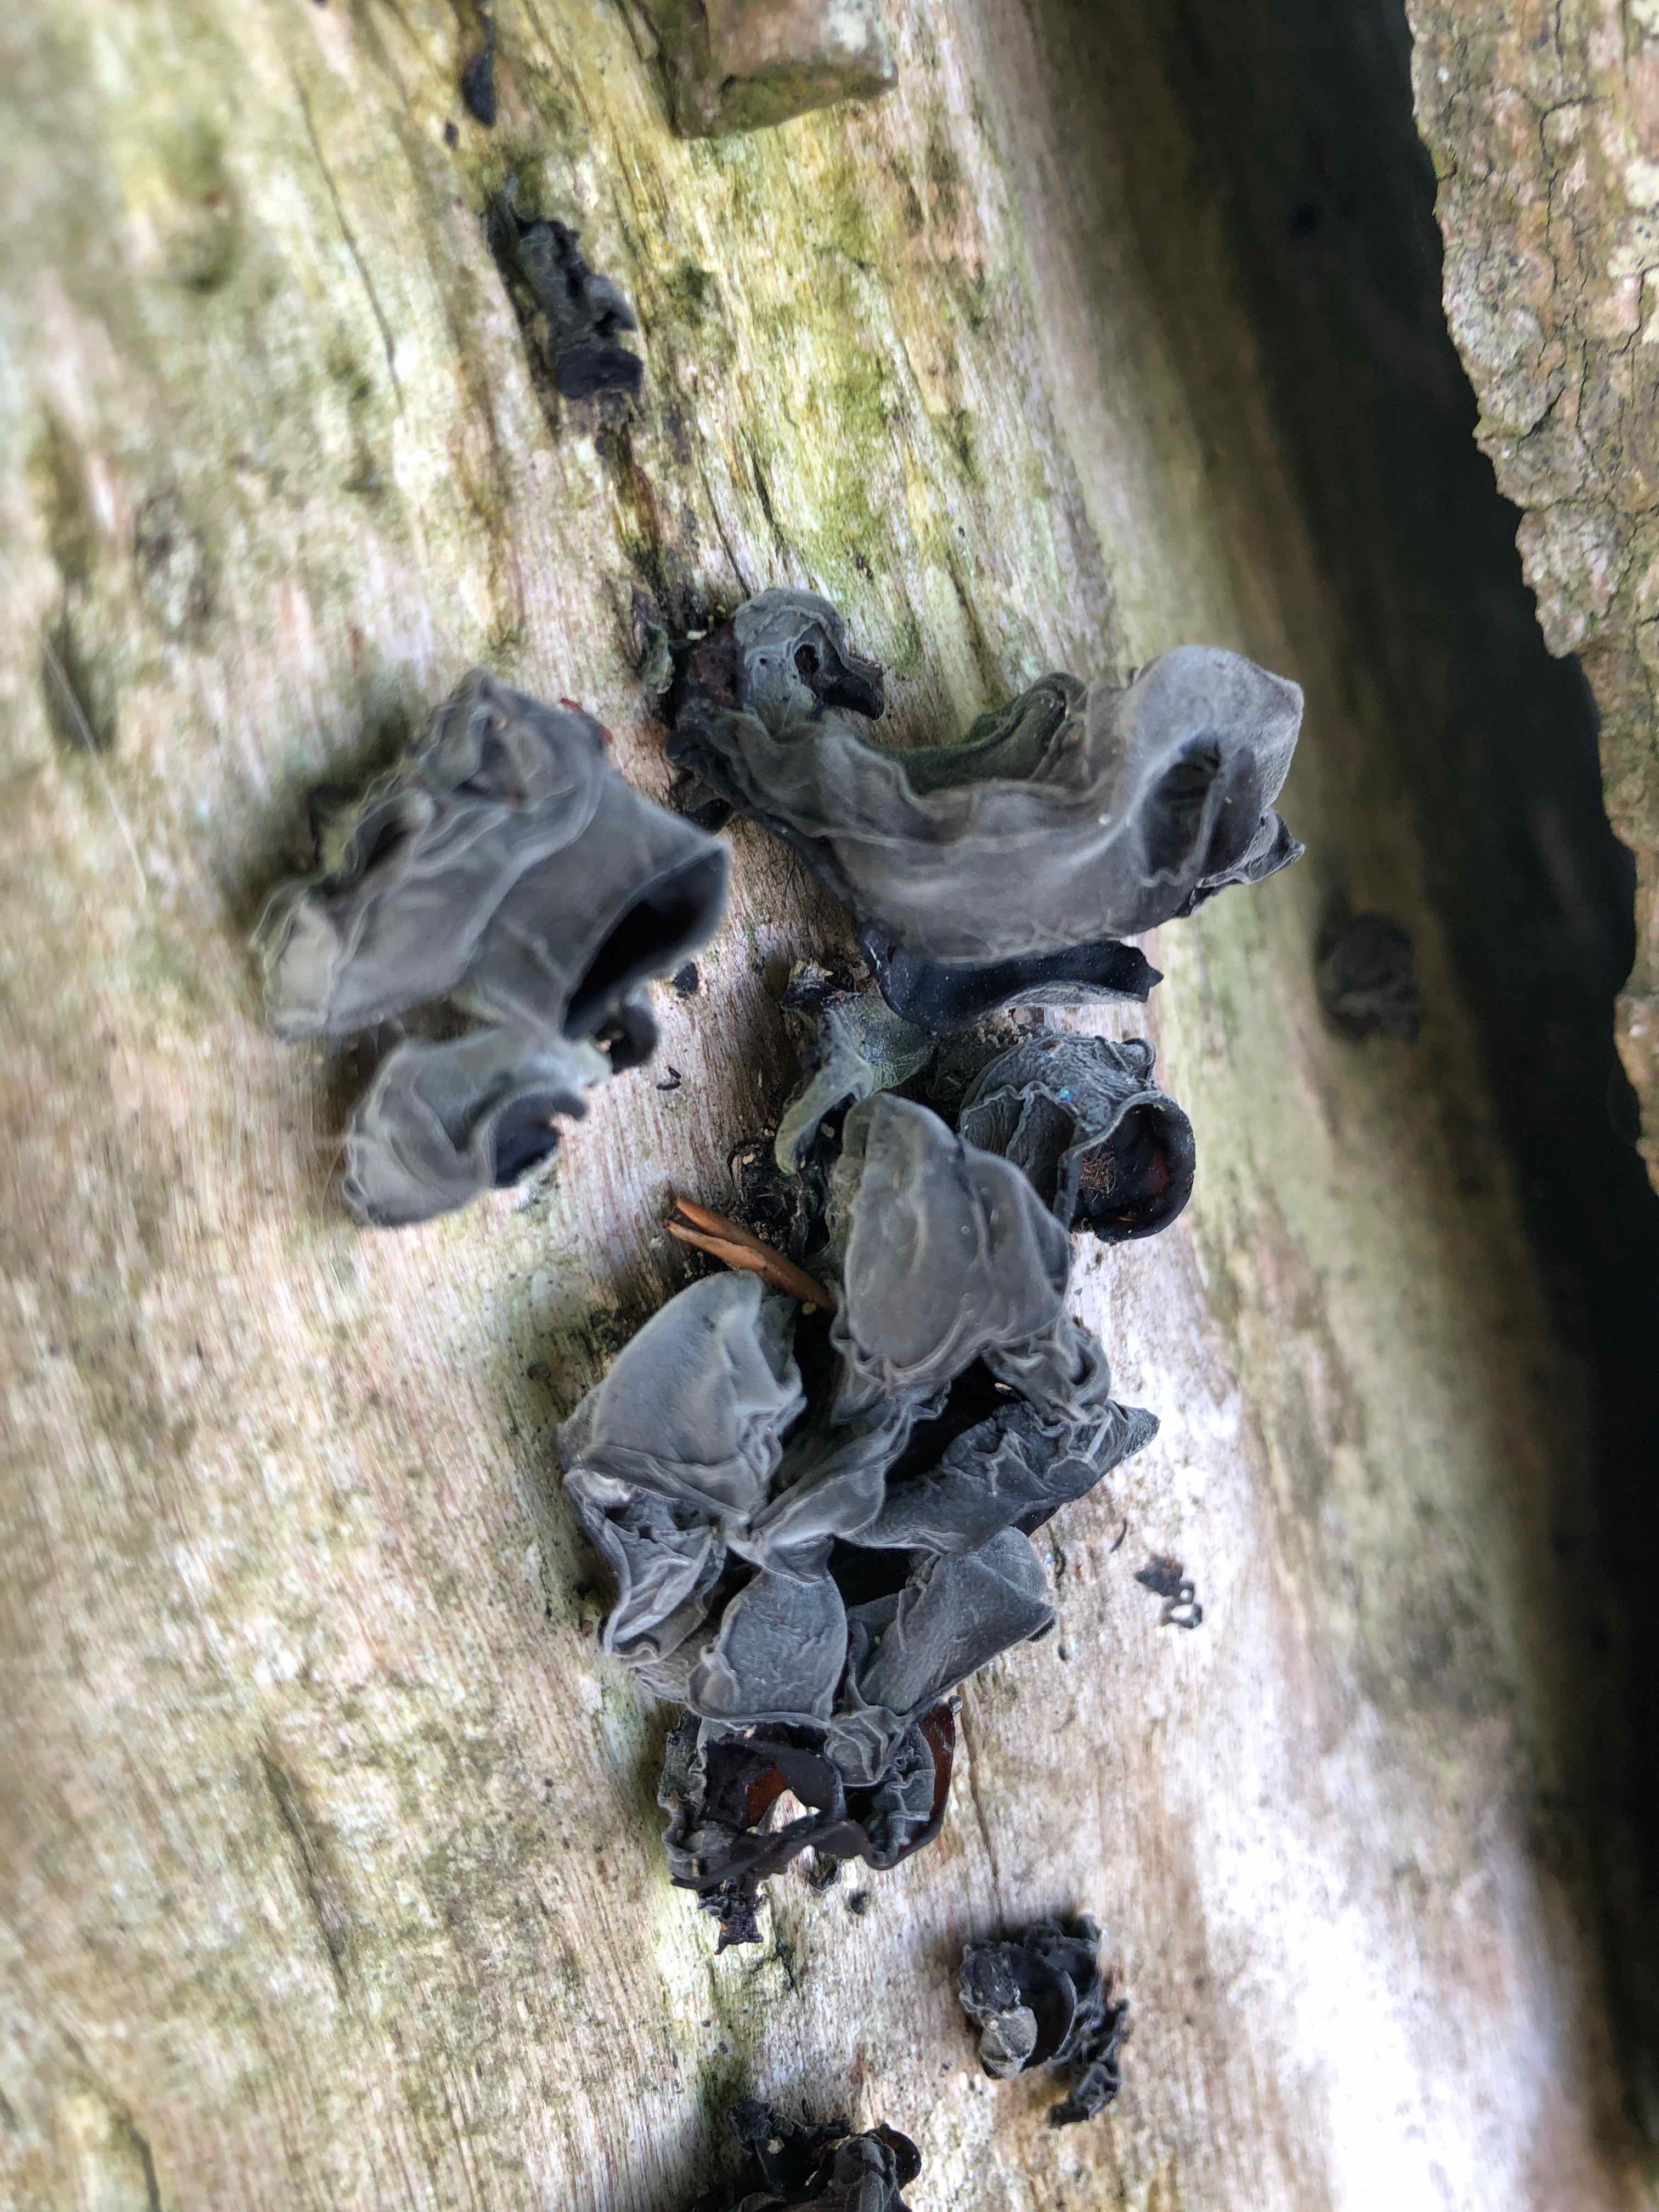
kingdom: Fungi
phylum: Basidiomycota
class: Agaricomycetes
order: Auriculariales
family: Auriculariaceae
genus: Auricularia
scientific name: Auricularia auricula-judae
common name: almindelig judasøre
